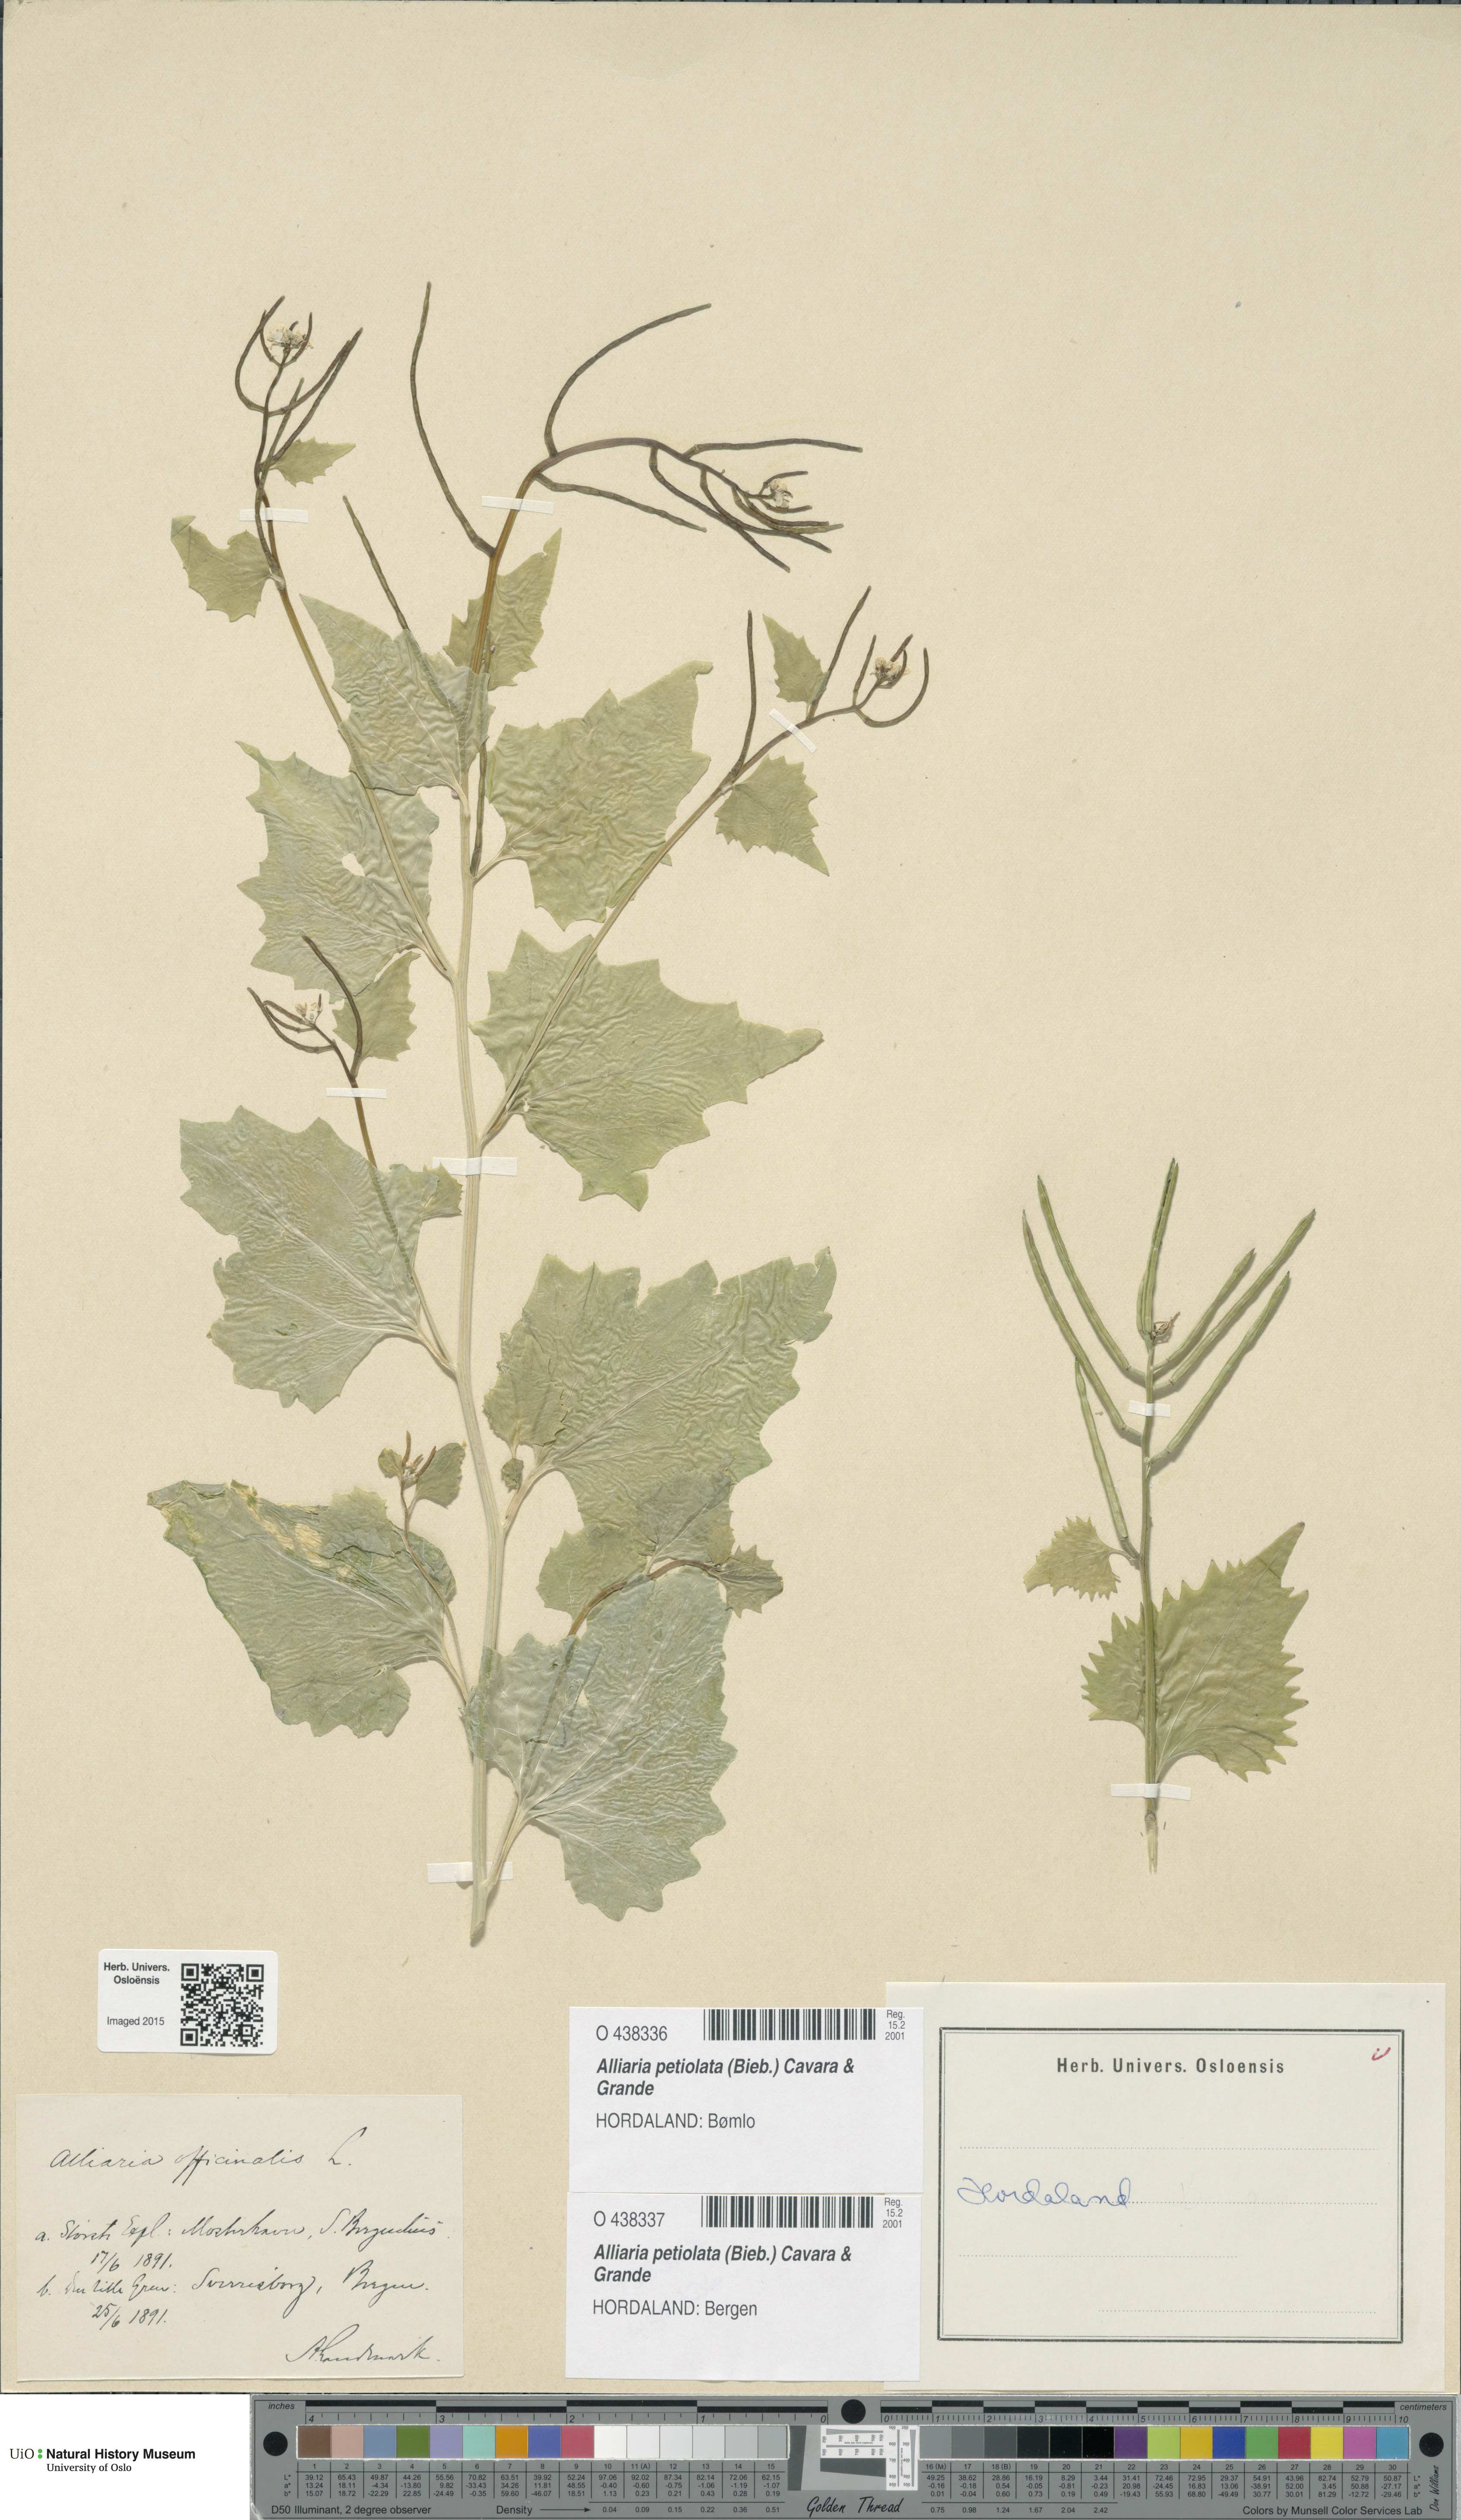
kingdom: Plantae
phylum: Tracheophyta
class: Magnoliopsida
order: Brassicales
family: Brassicaceae
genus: Alliaria
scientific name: Alliaria petiolata
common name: Garlic mustard
